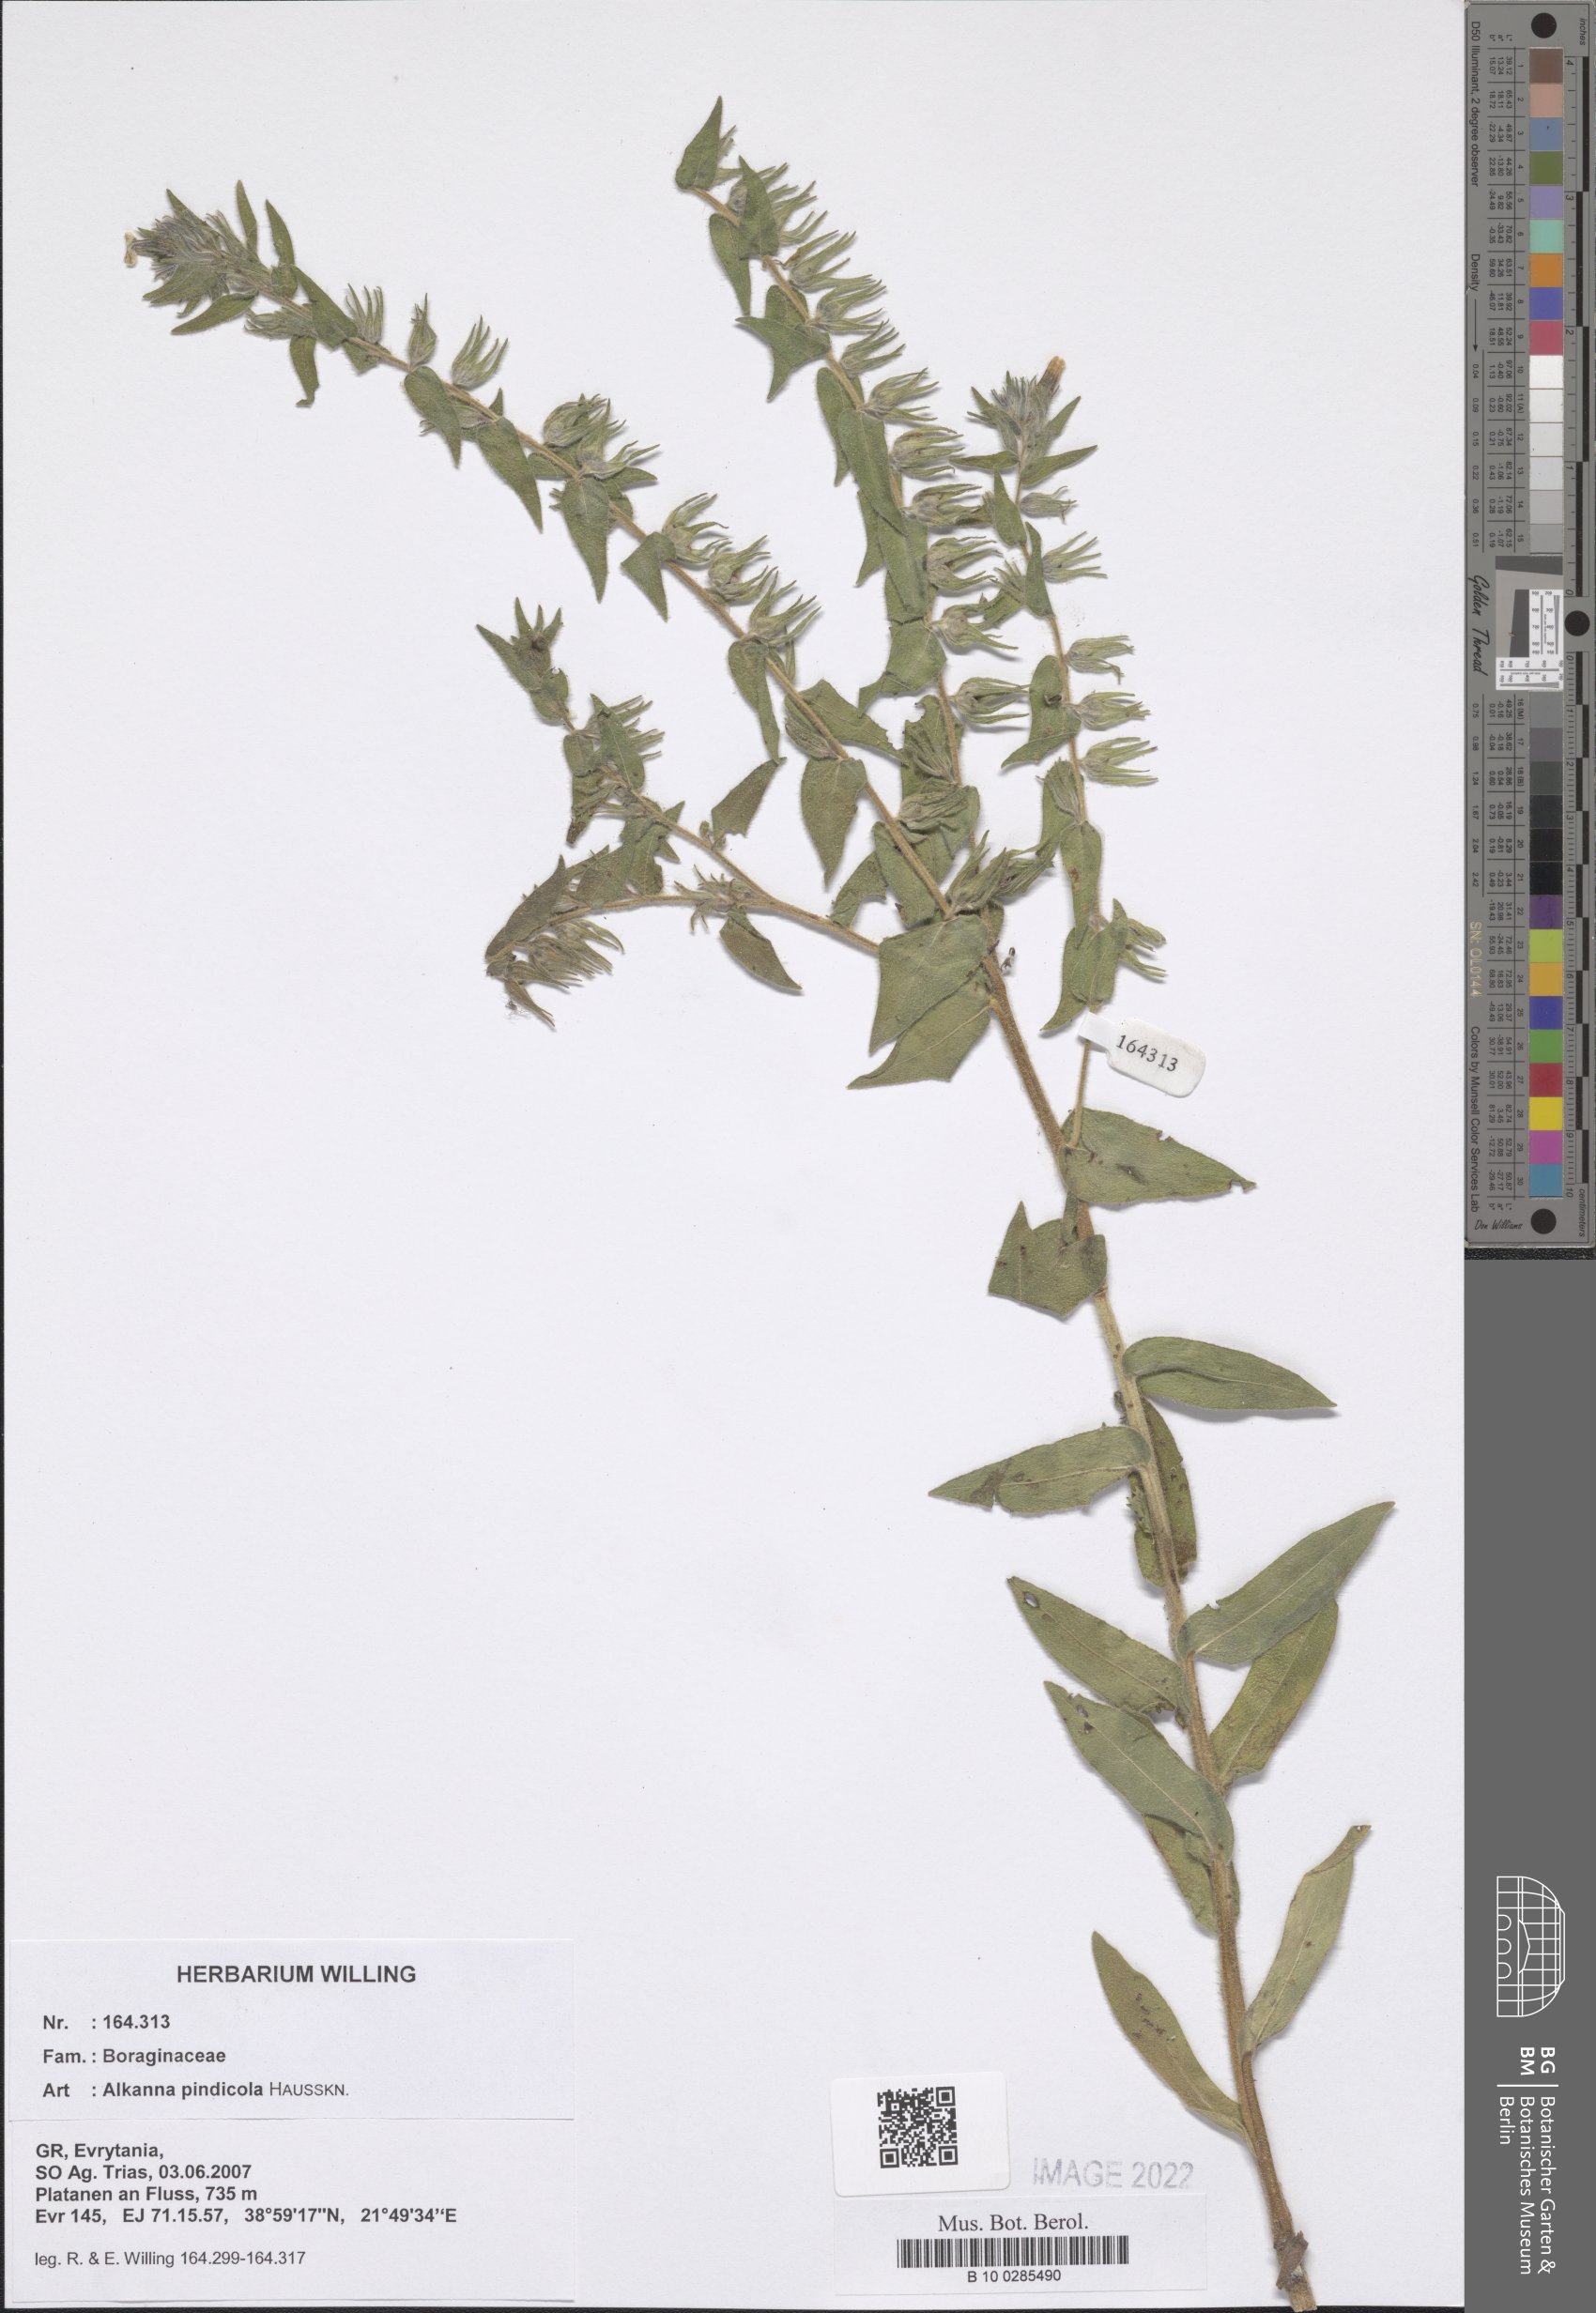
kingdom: Plantae
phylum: Tracheophyta
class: Magnoliopsida
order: Boraginales
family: Boraginaceae
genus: Alkanna
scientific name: Alkanna pindicola
